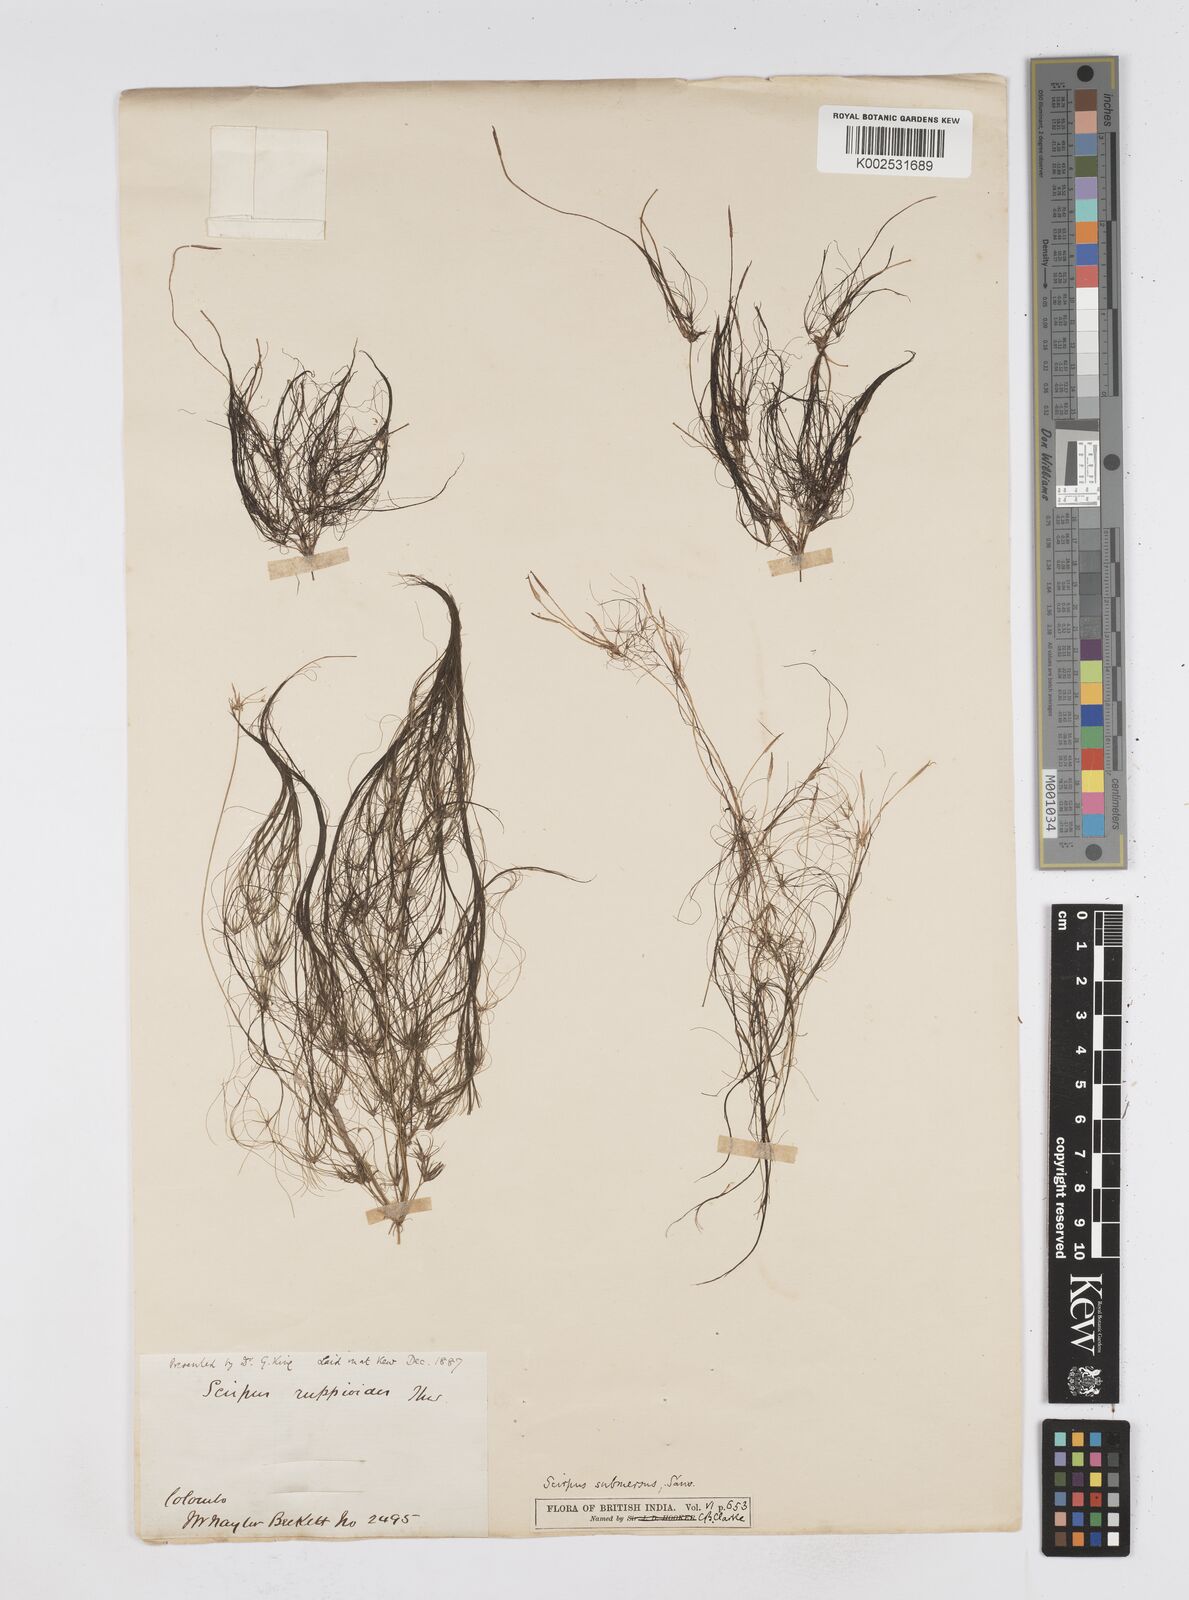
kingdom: Plantae
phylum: Tracheophyta
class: Liliopsida
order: Poales
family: Cyperaceae
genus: Eleocharis
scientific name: Eleocharis confervoides
